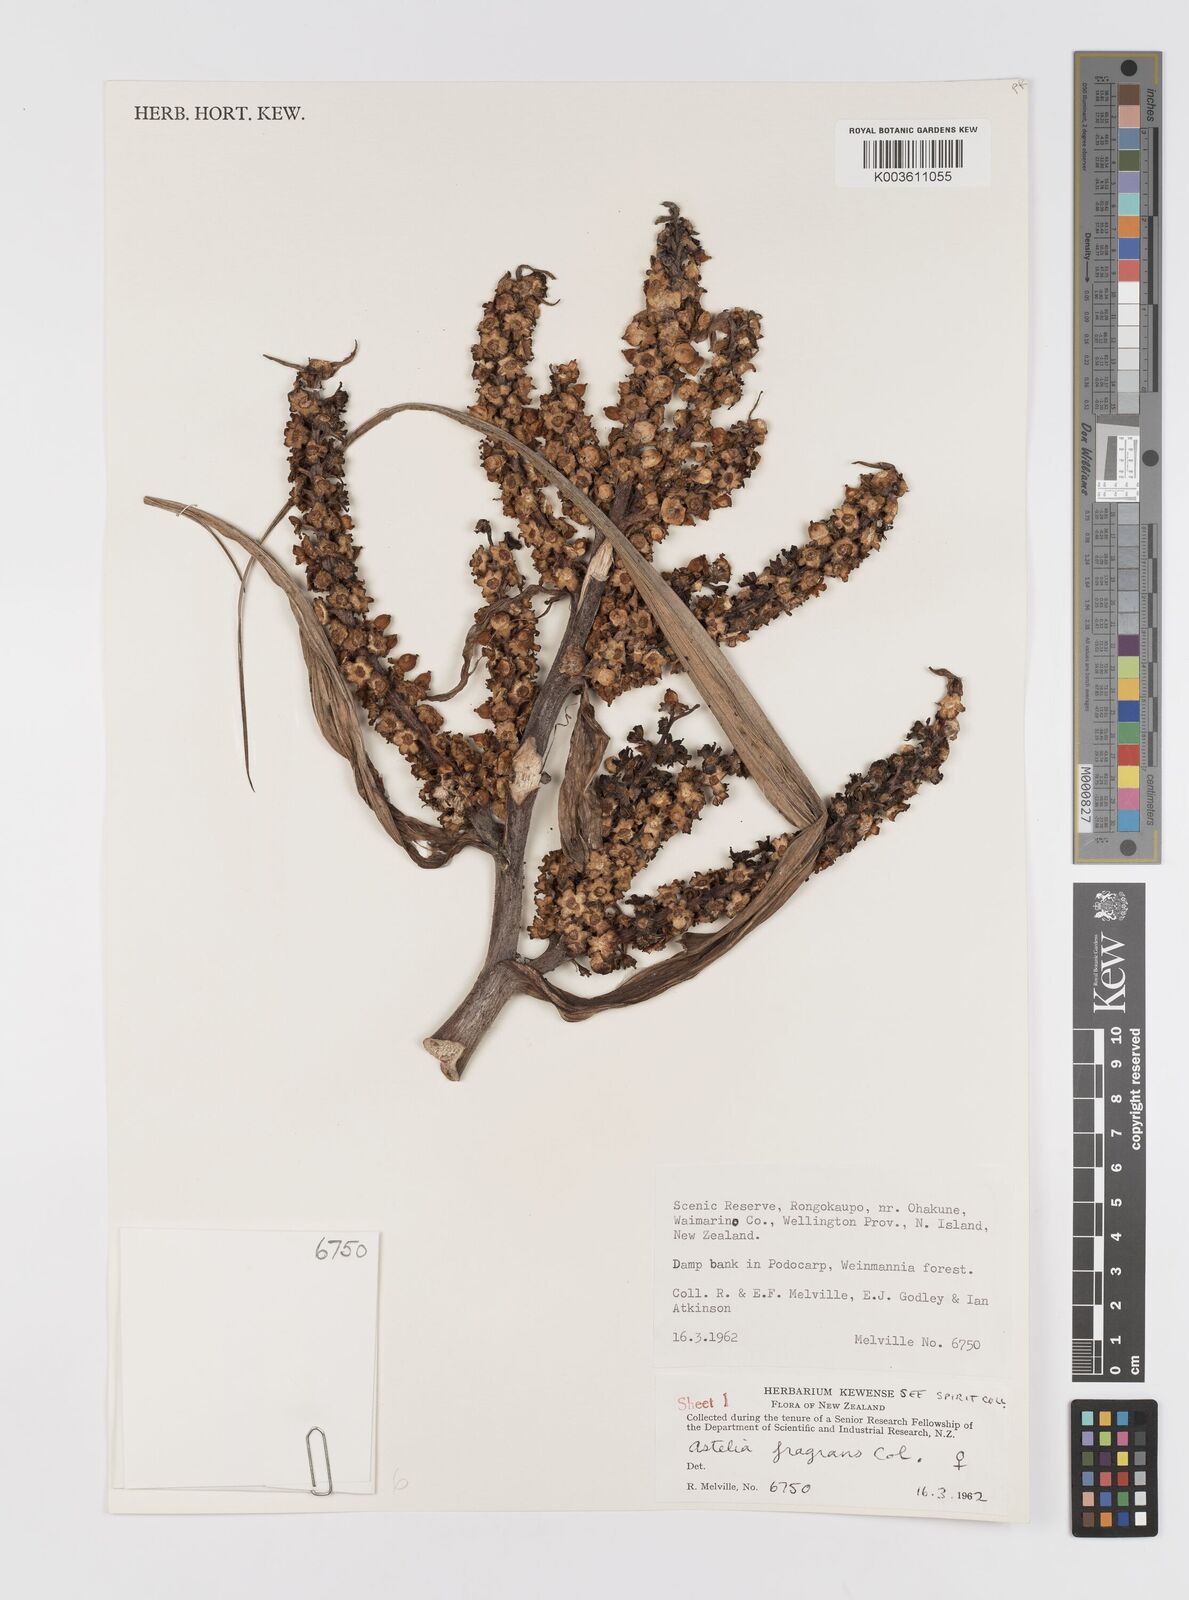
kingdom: Plantae
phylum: Tracheophyta
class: Liliopsida
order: Asparagales
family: Asteliaceae
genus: Astelia
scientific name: Astelia fragrans
